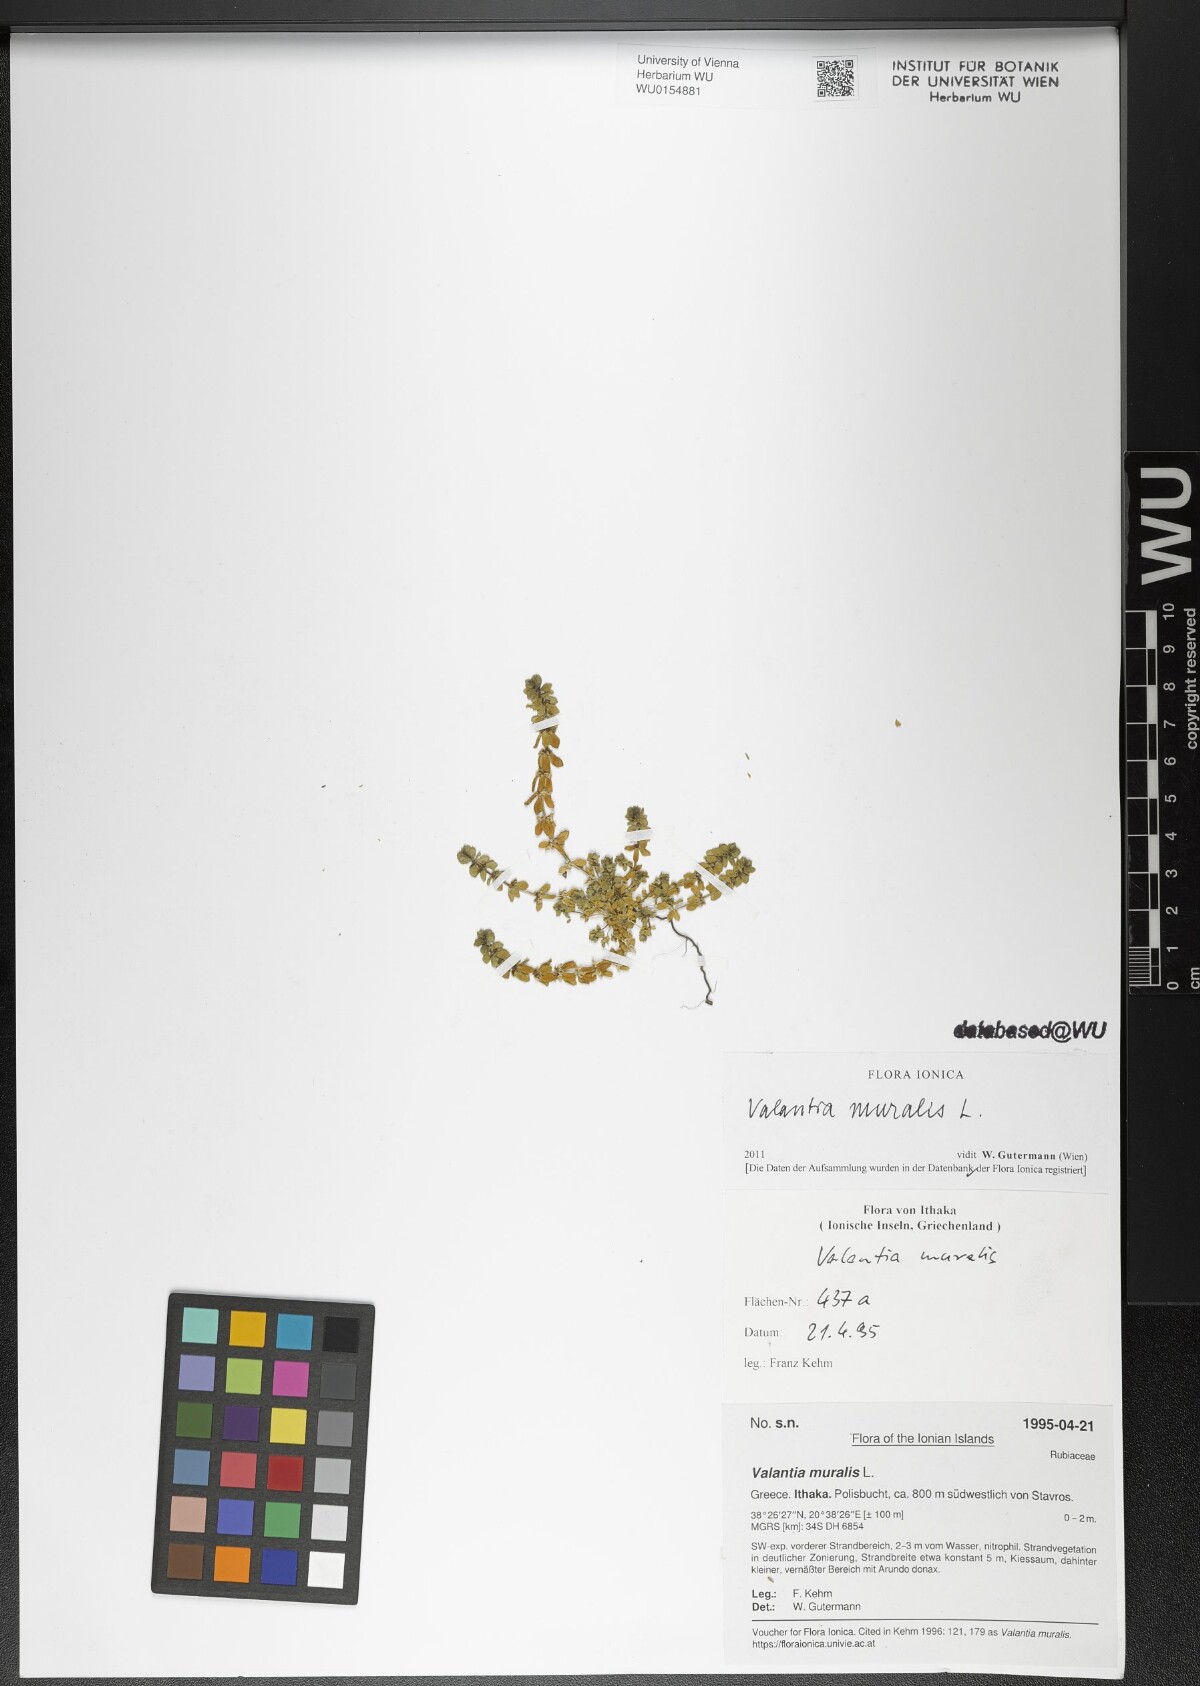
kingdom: Plantae
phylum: Tracheophyta
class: Magnoliopsida
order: Gentianales
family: Rubiaceae
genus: Valantia
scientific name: Valantia muralis
